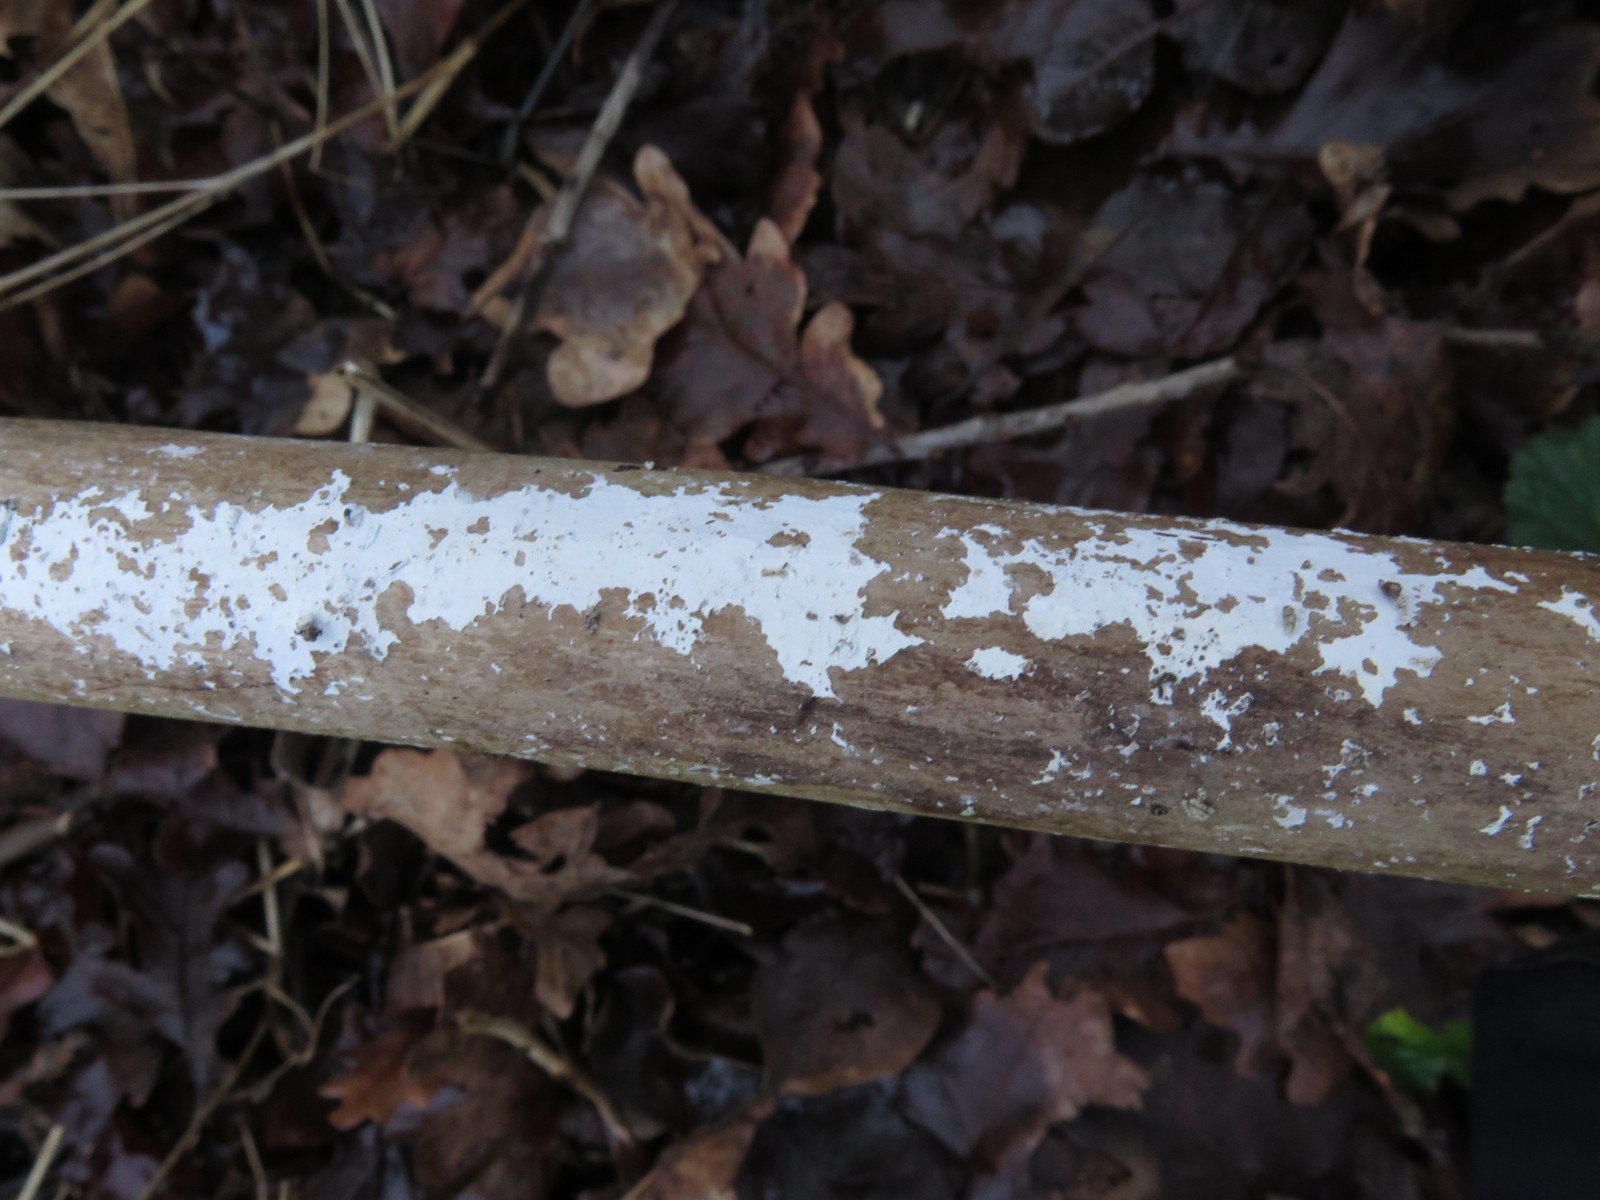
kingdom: Fungi
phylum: Basidiomycota
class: Agaricomycetes
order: Corticiales
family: Corticiaceae
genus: Lyomyces
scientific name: Lyomyces sambuci
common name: almindelig hyldehinde
